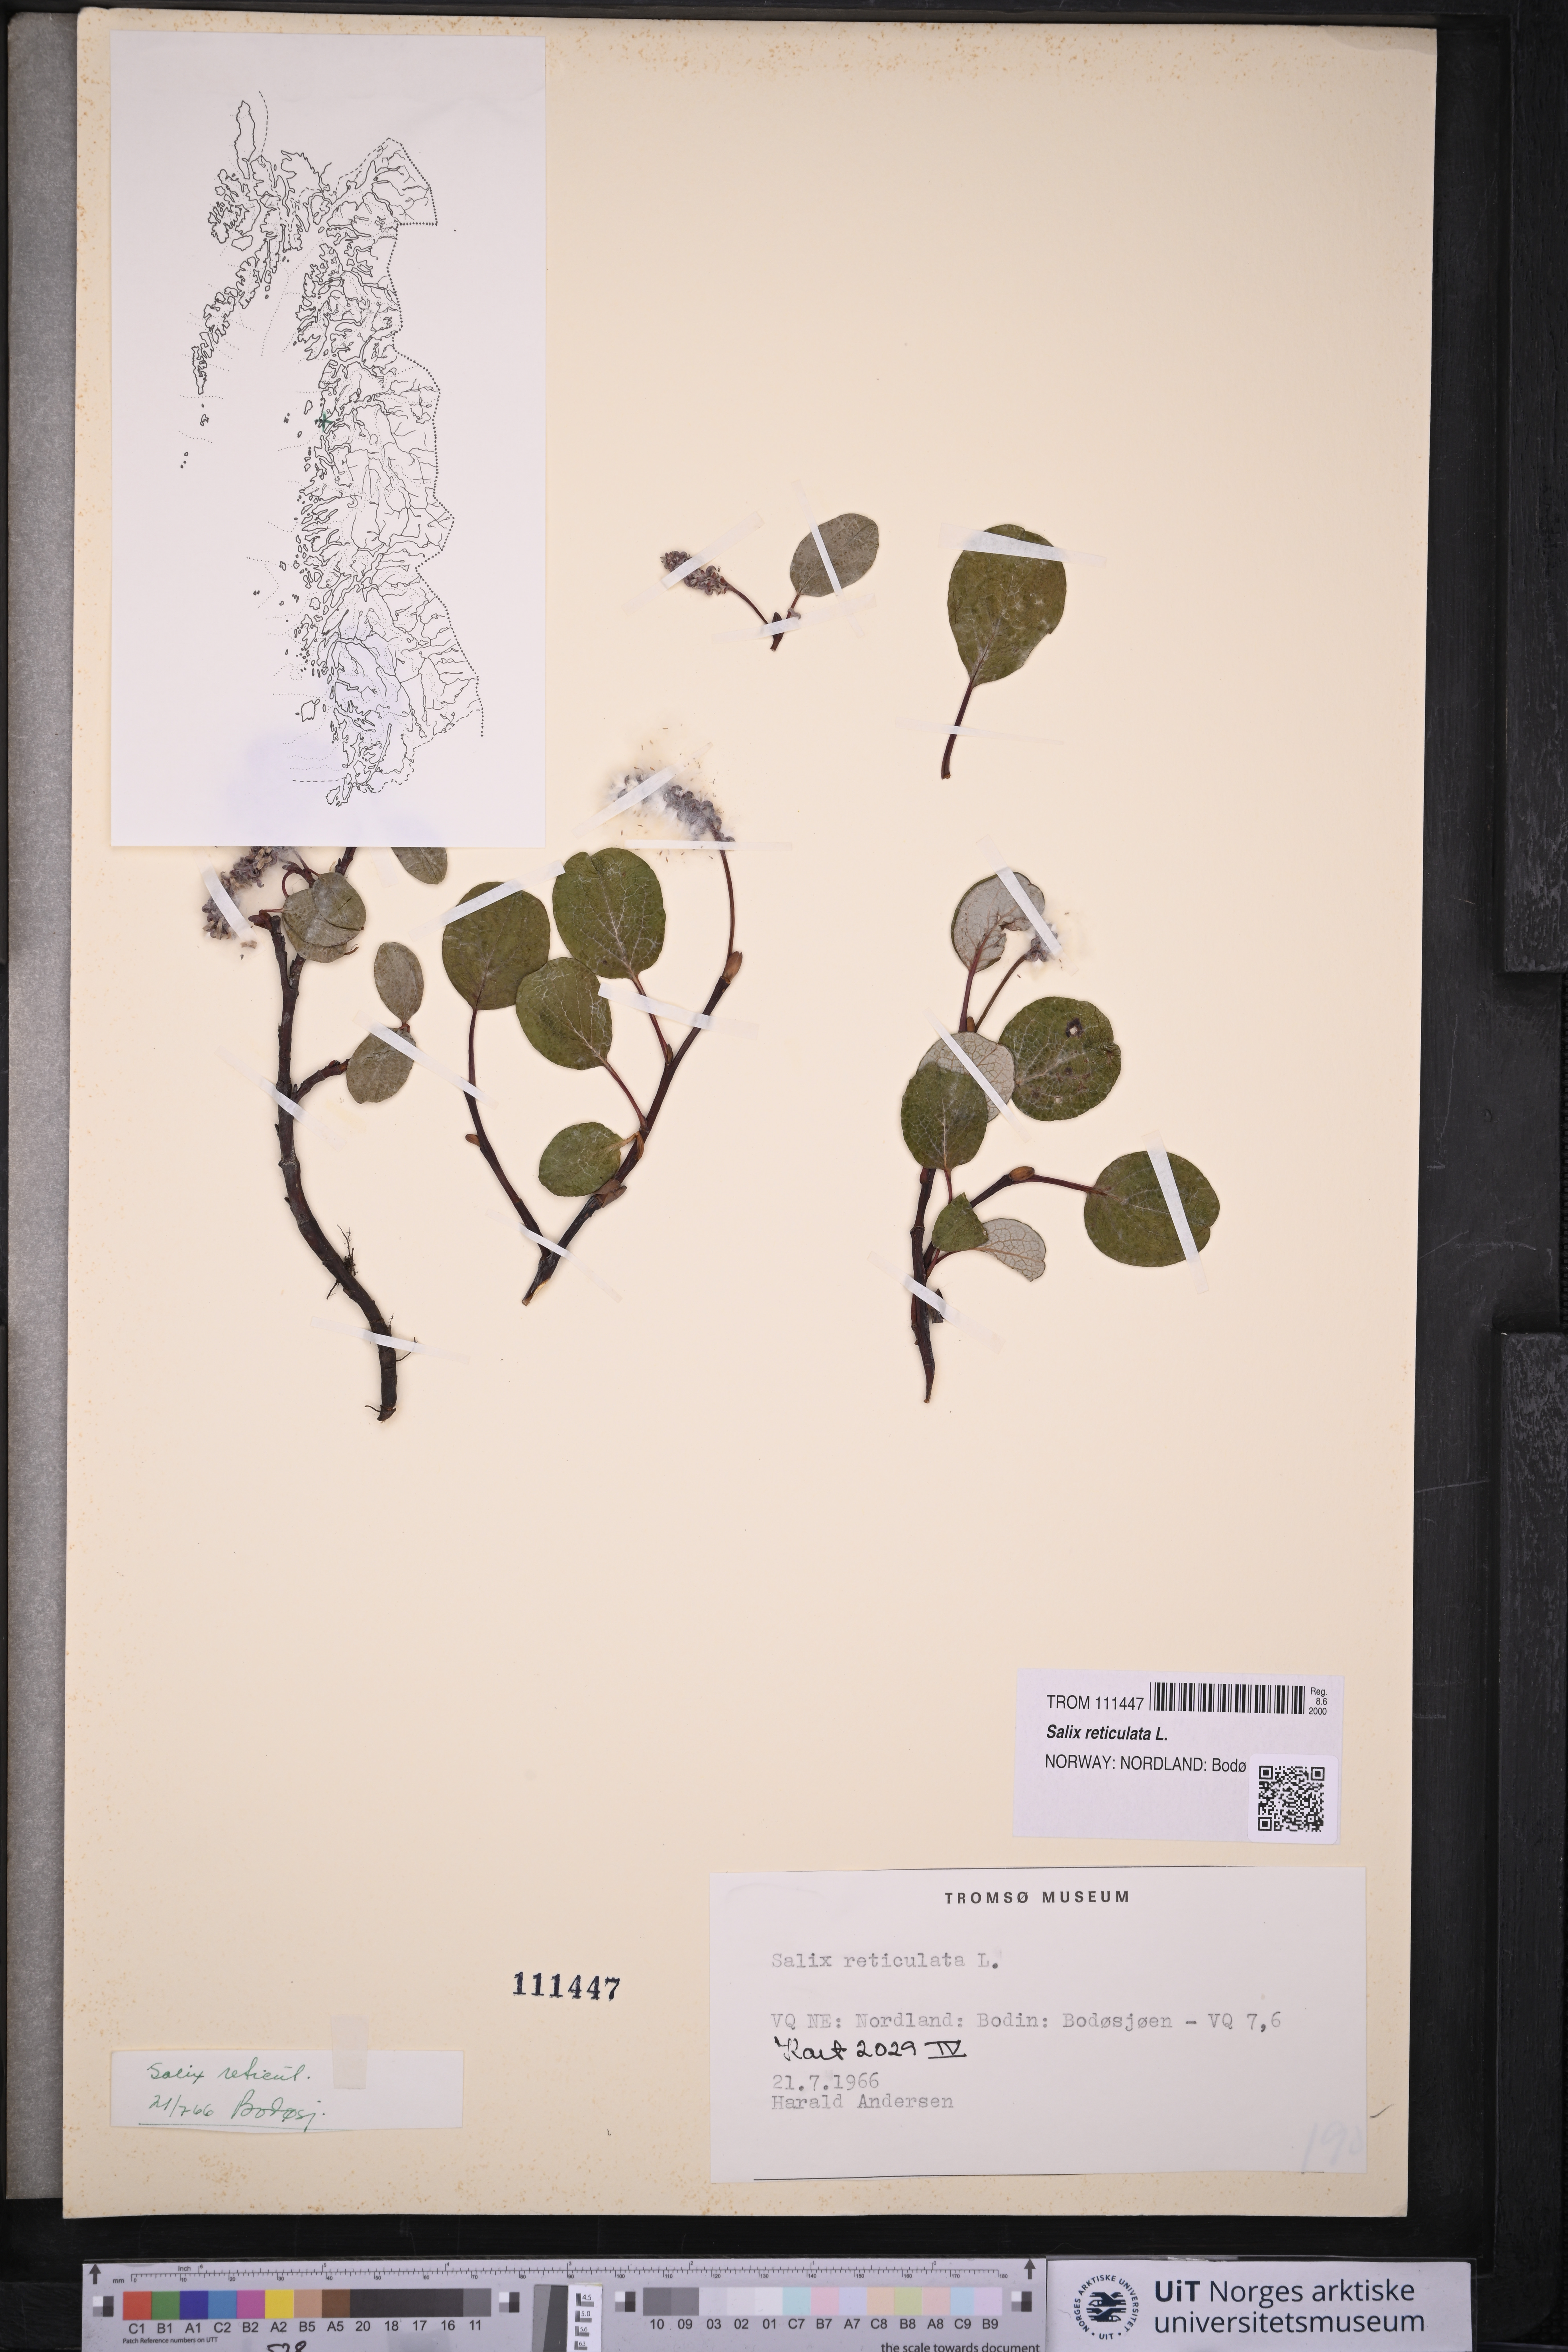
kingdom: Plantae
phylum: Tracheophyta
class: Magnoliopsida
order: Malpighiales
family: Salicaceae
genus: Salix
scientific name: Salix reticulata
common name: Net-leaved willow
